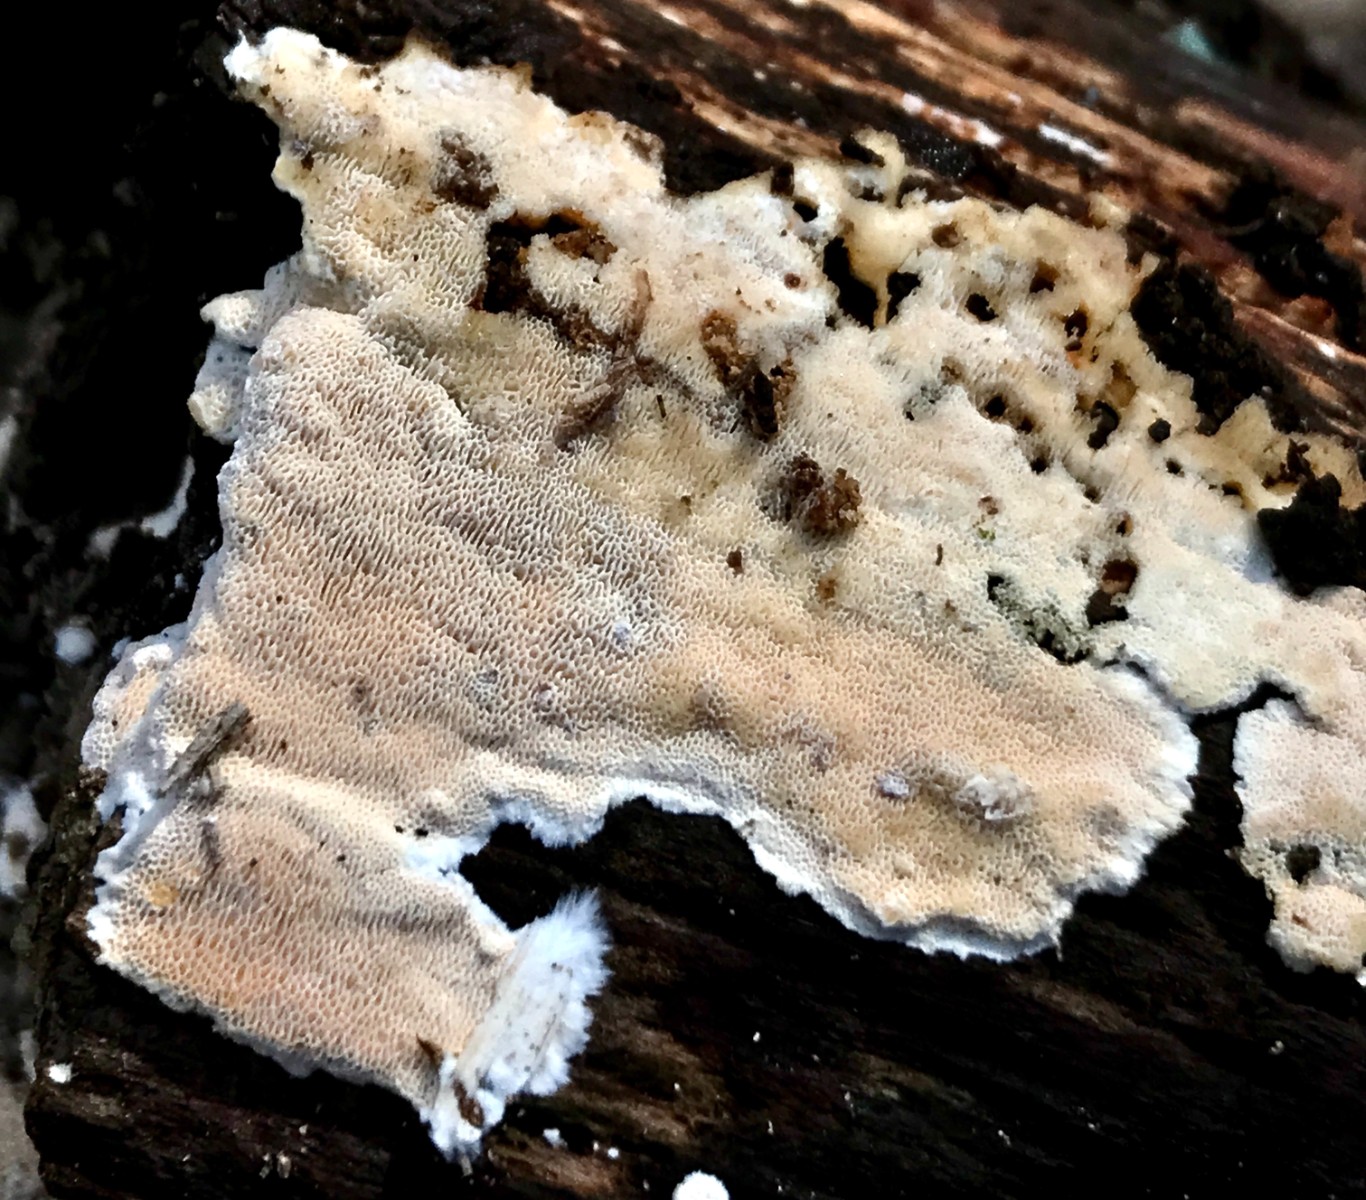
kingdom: Fungi
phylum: Basidiomycota
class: Agaricomycetes
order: Polyporales
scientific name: Polyporales
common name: poresvampordenen
